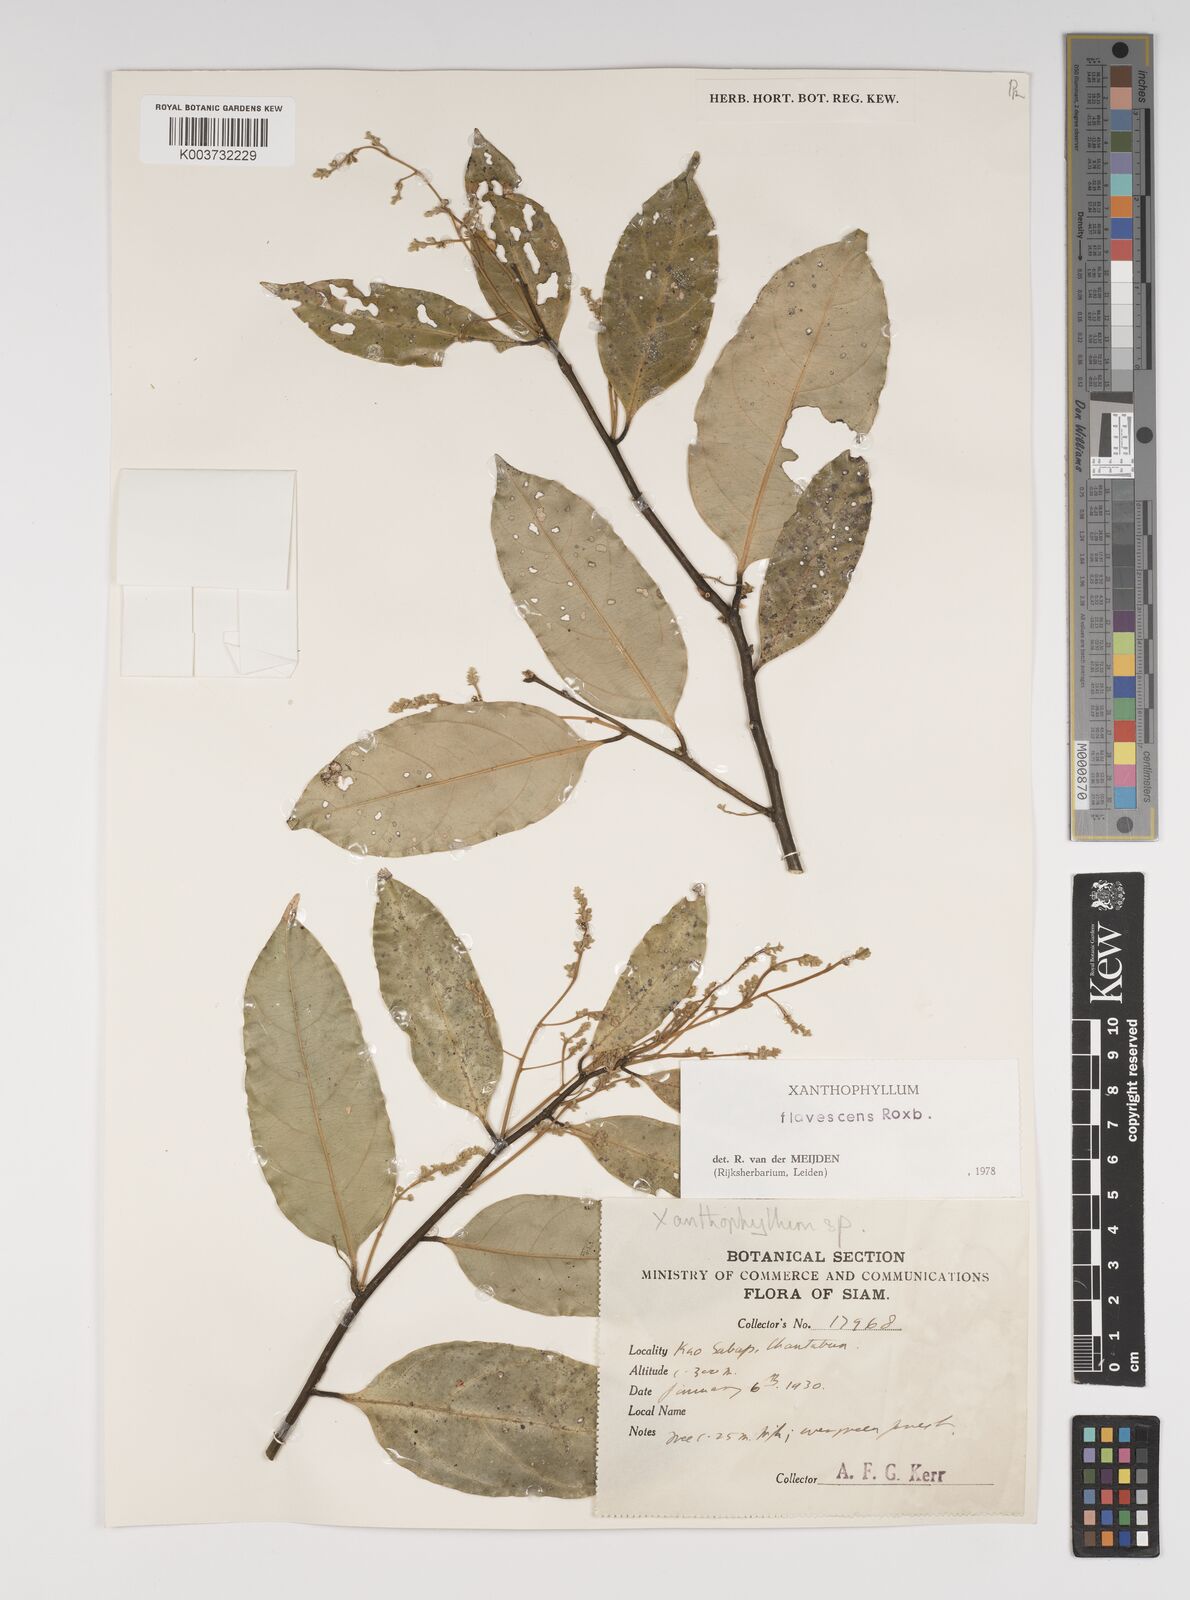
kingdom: Plantae
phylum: Tracheophyta
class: Magnoliopsida
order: Fabales
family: Polygalaceae
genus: Xanthophyllum
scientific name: Xanthophyllum flavescens
